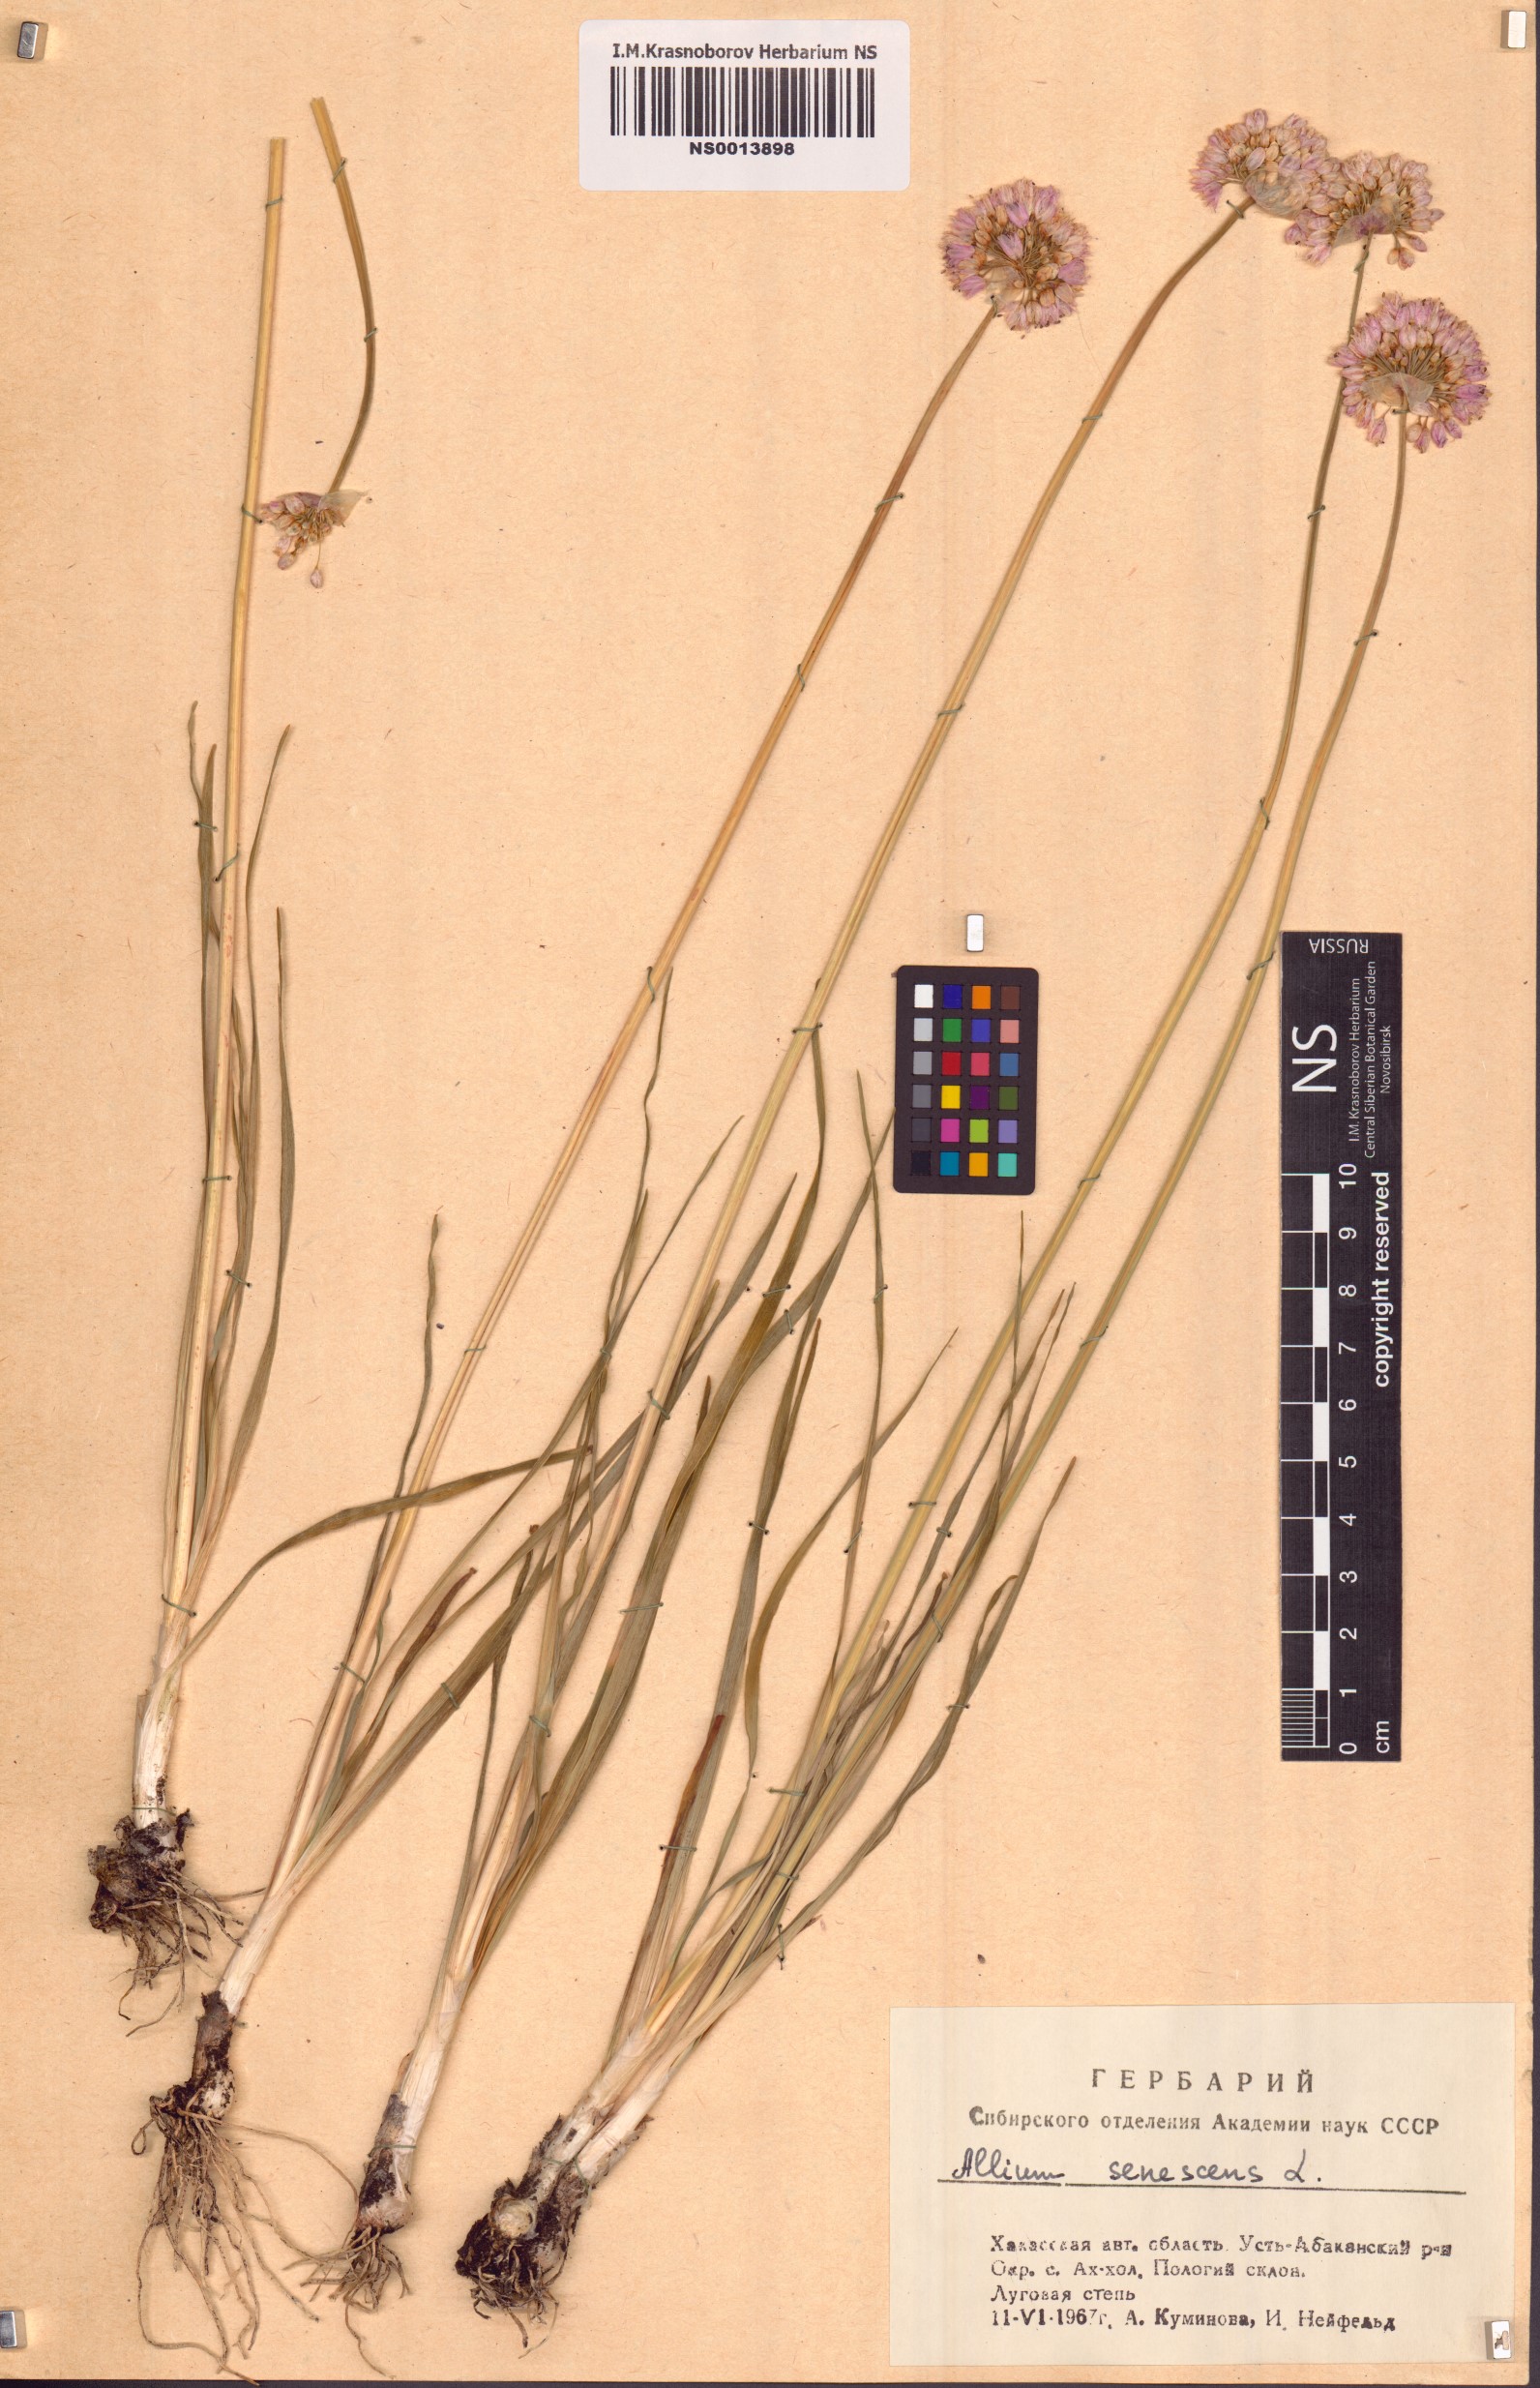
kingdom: Plantae
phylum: Tracheophyta
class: Liliopsida
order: Asparagales
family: Amaryllidaceae
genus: Allium
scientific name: Allium senescens
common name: German garlic
